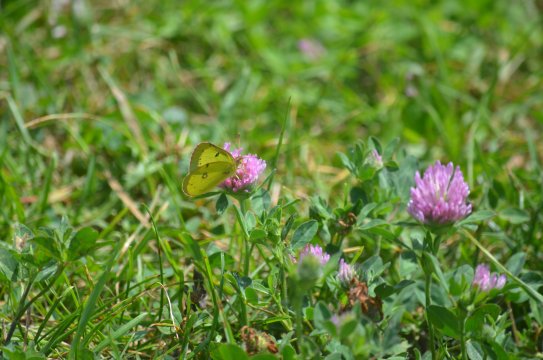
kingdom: Animalia
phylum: Arthropoda
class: Insecta
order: Lepidoptera
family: Pieridae
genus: Colias
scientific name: Colias philodice
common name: Clouded Sulphur
